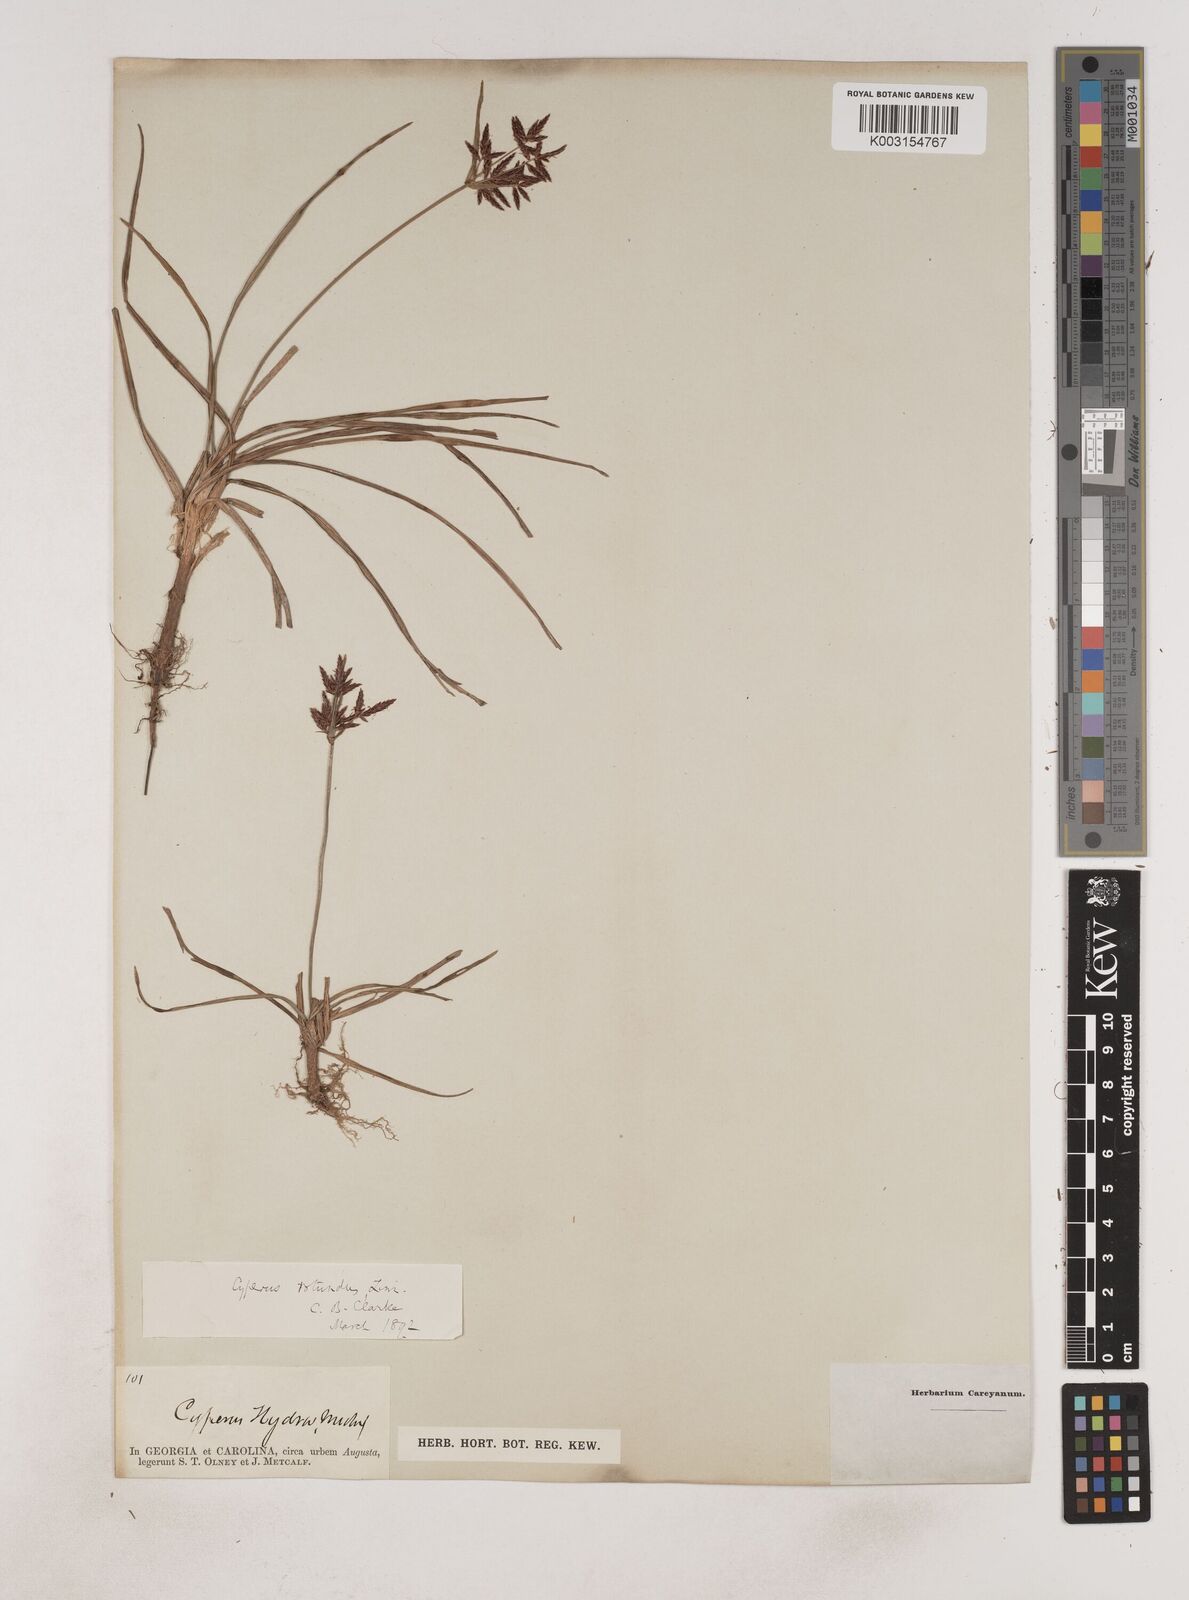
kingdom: Plantae
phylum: Tracheophyta
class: Liliopsida
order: Poales
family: Cyperaceae
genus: Cyperus
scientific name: Cyperus rotundus
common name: Nutgrass
